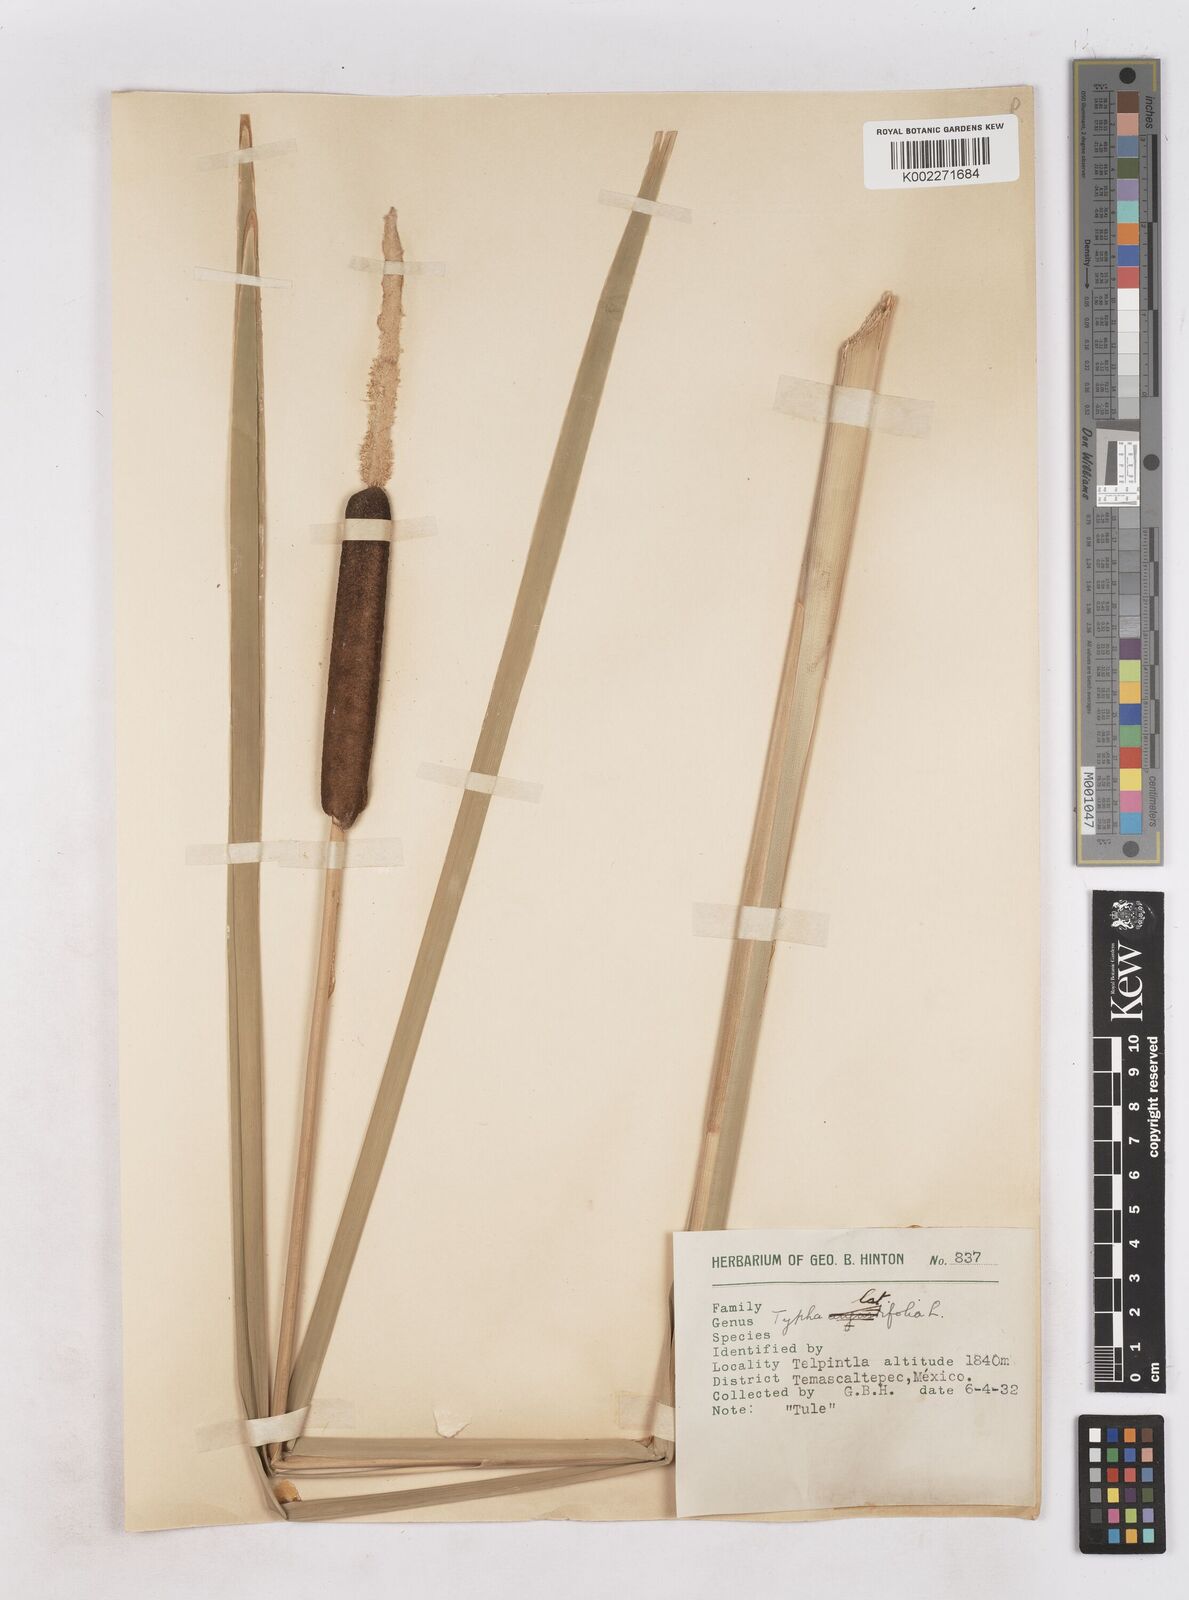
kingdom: Plantae
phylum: Tracheophyta
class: Liliopsida
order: Poales
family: Typhaceae
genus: Typha
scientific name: Typha latifolia
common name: Broadleaf cattail
